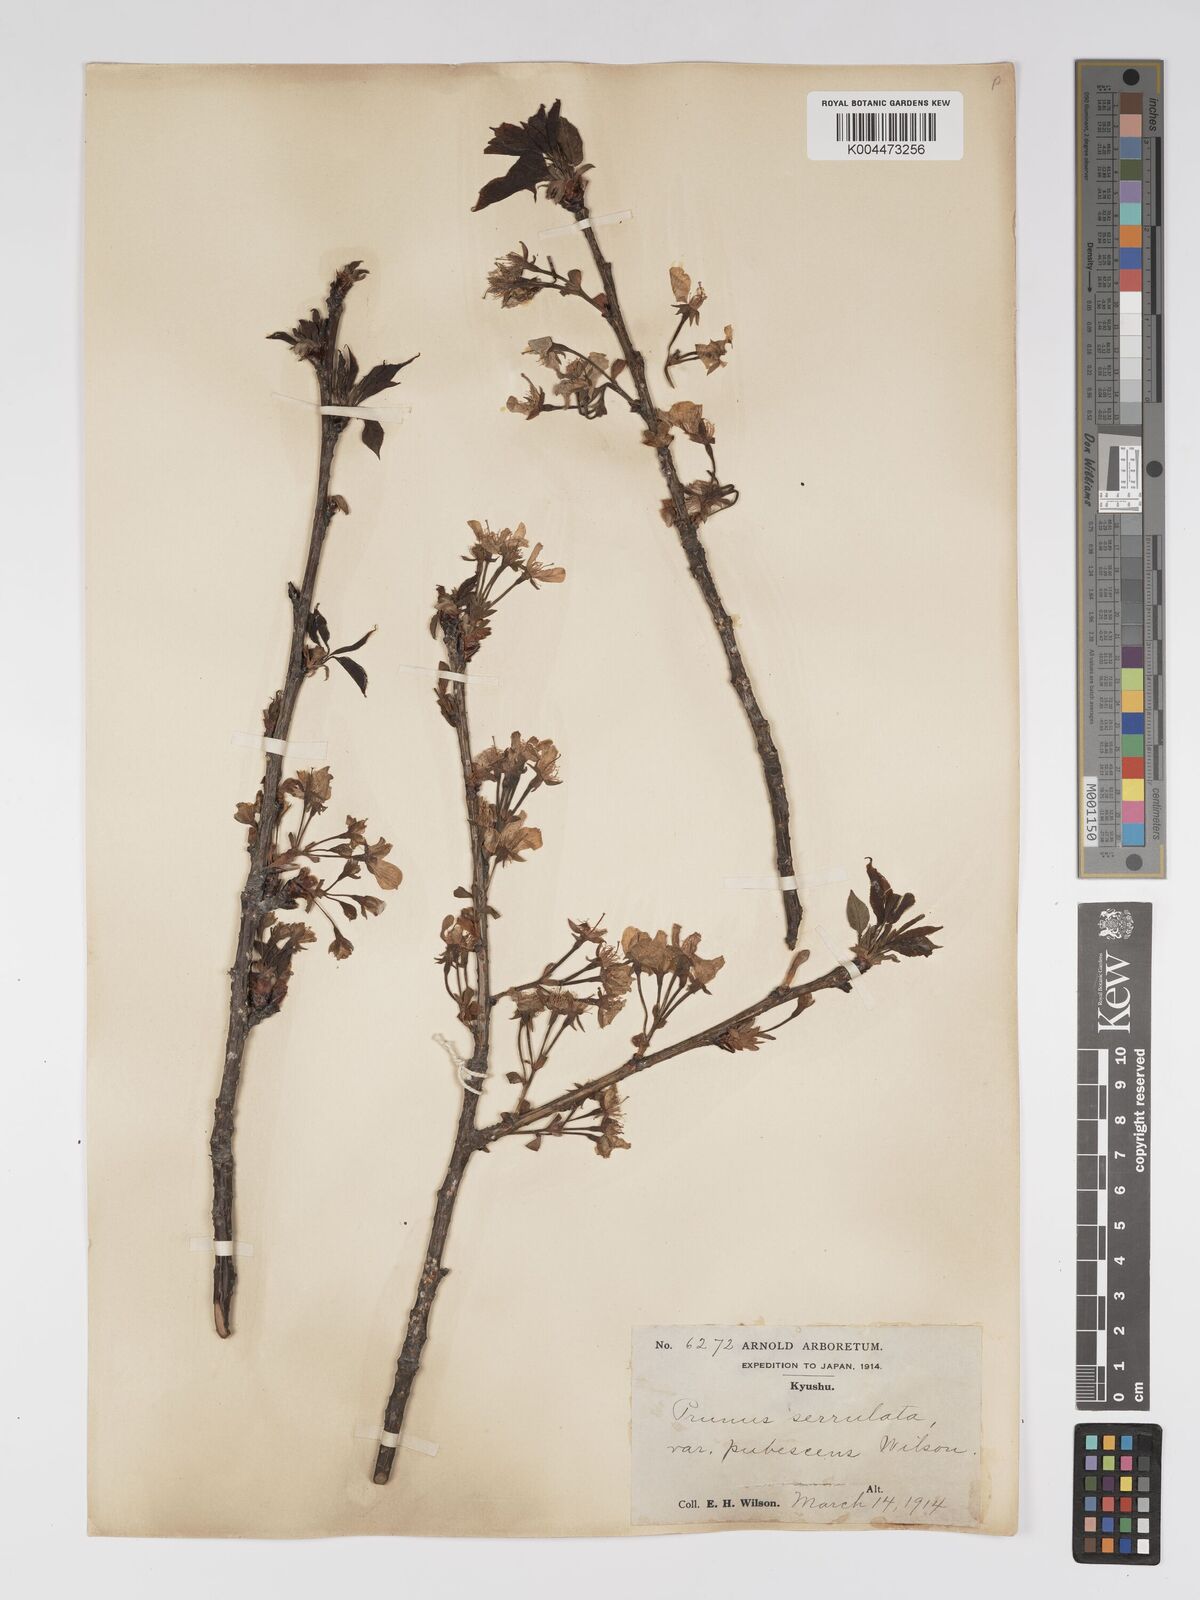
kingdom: Plantae
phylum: Tracheophyta
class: Magnoliopsida
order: Rosales
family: Rosaceae
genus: Prunus
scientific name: Prunus serrulata
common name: Japanese cherry
